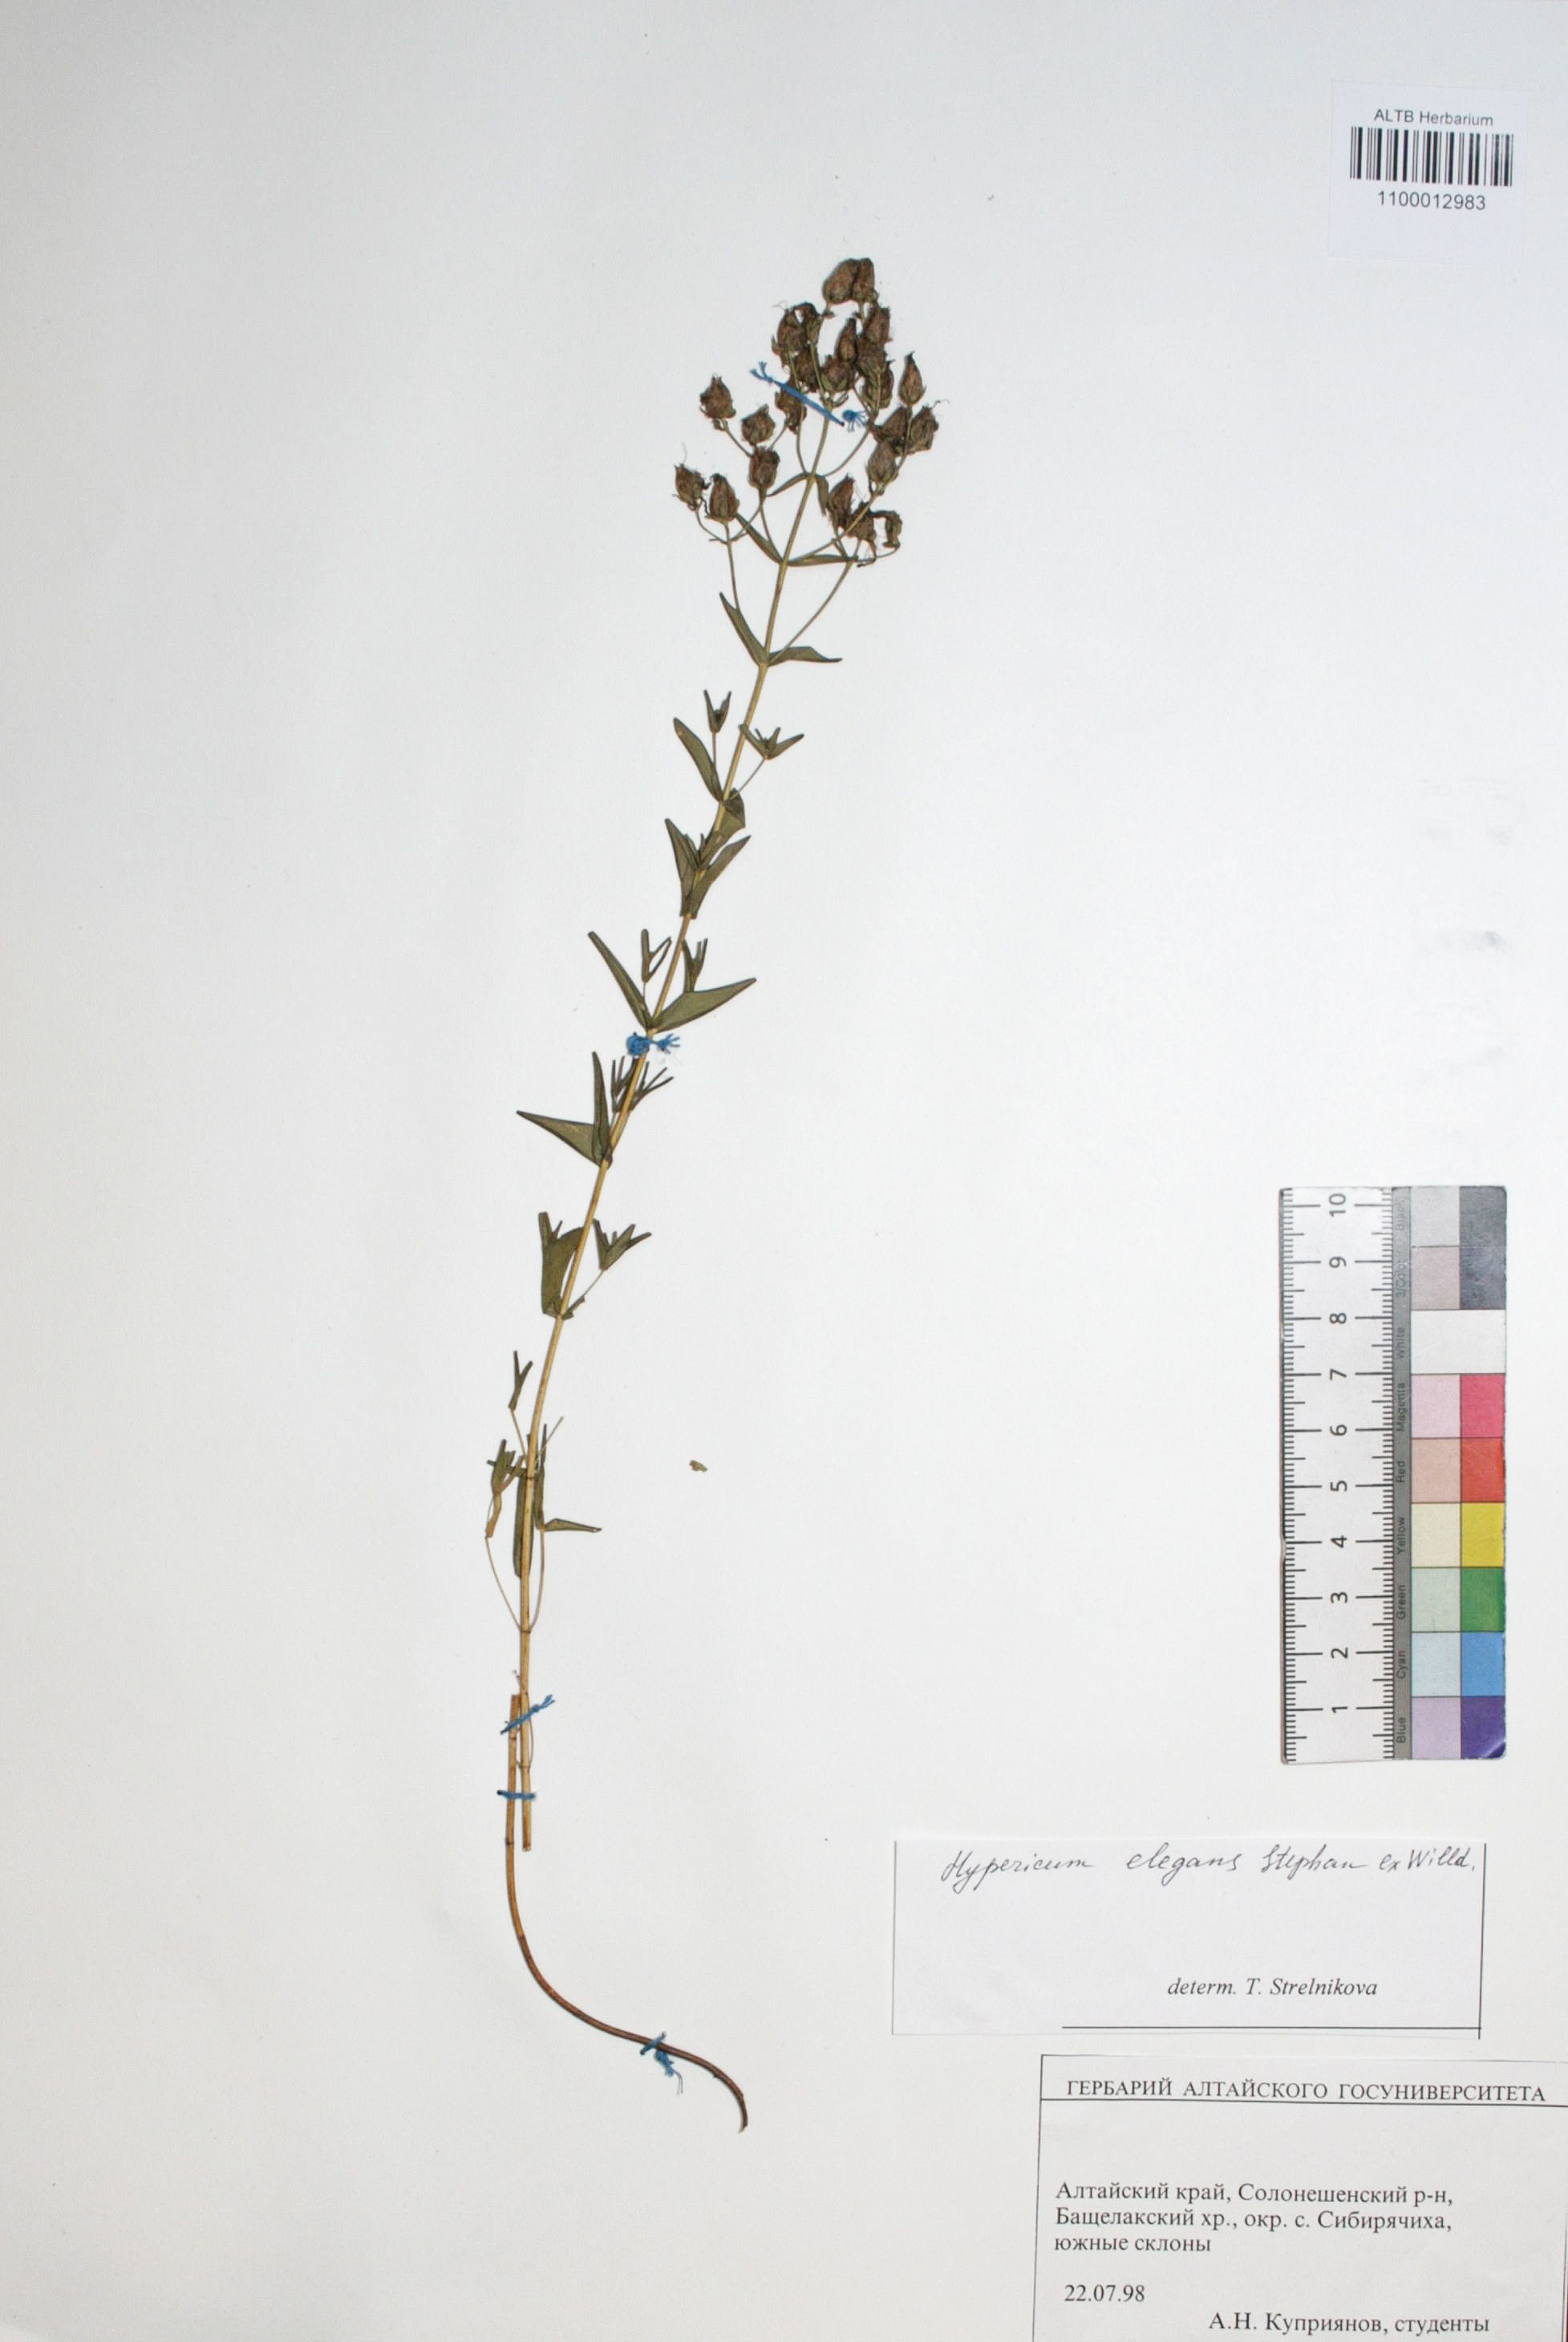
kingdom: Plantae
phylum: Tracheophyta
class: Magnoliopsida
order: Malpighiales
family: Hypericaceae
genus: Hypericum
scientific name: Hypericum elegans
